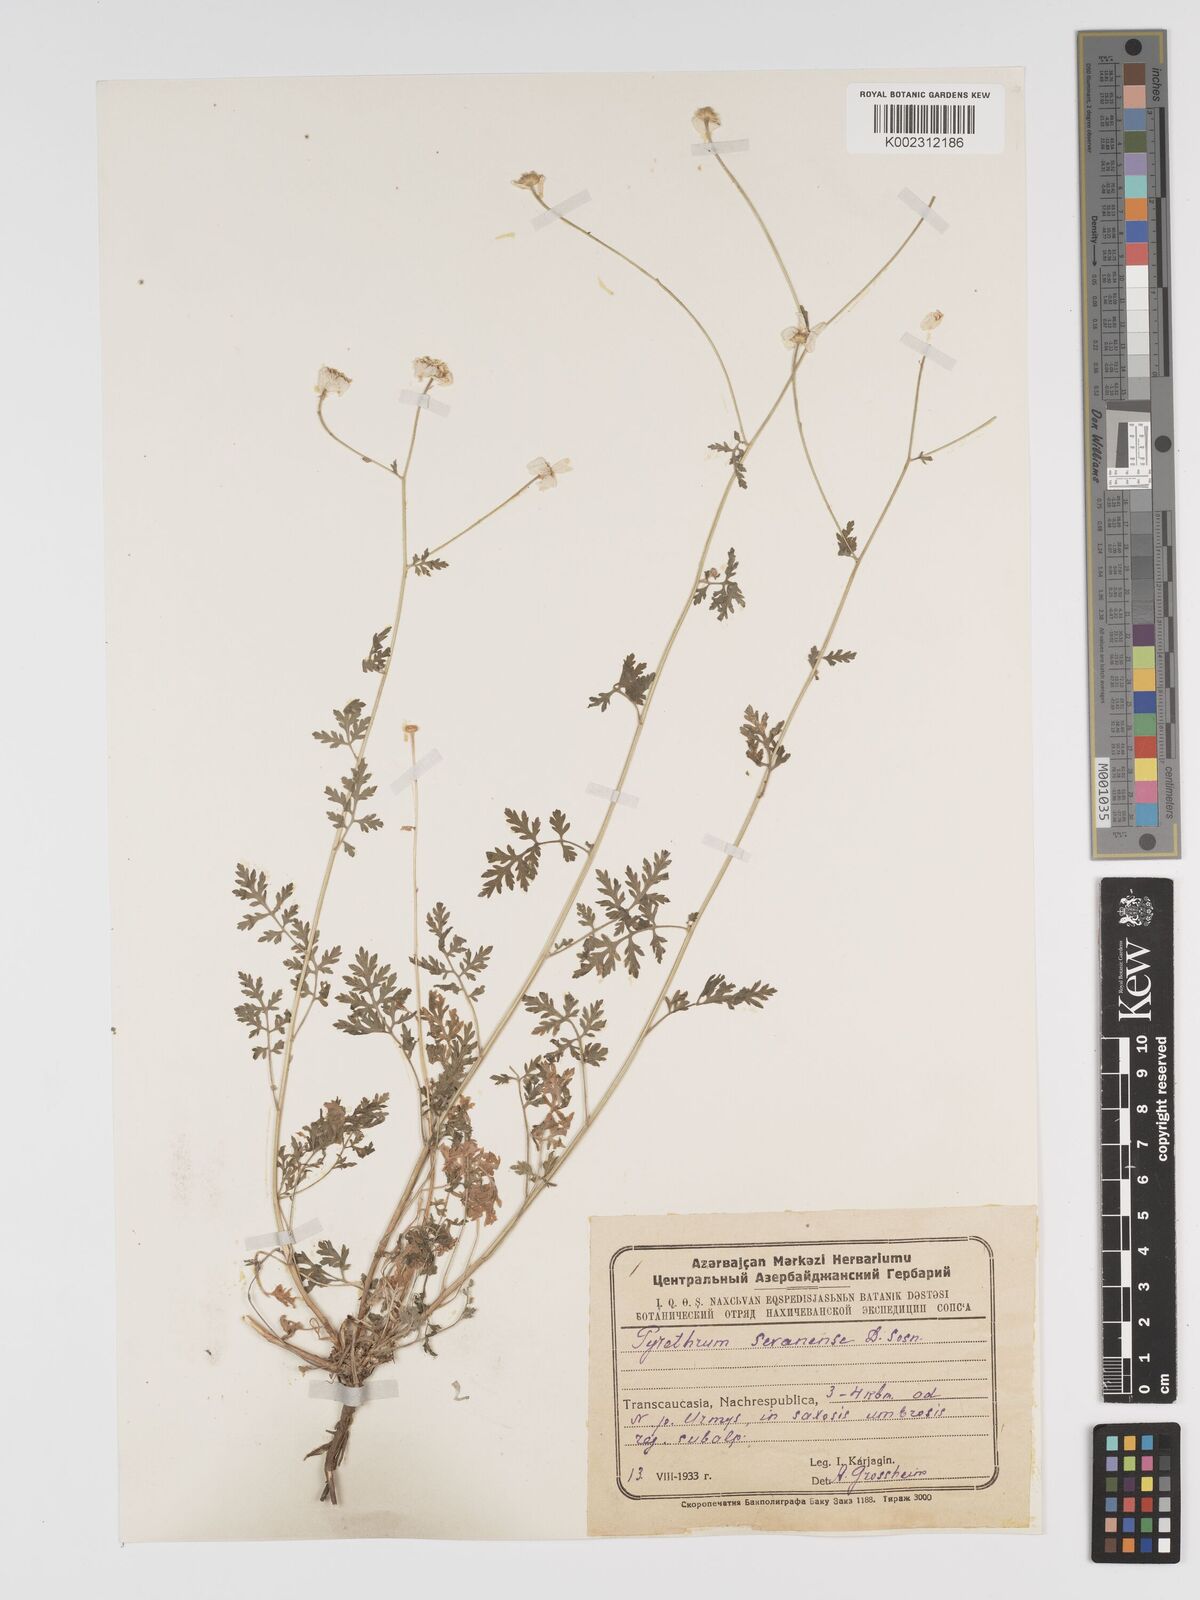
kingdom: Plantae
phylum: Tracheophyta
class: Magnoliopsida
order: Asterales
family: Asteraceae
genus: Tanacetum
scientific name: Tanacetum parthenium
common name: Feverfew
